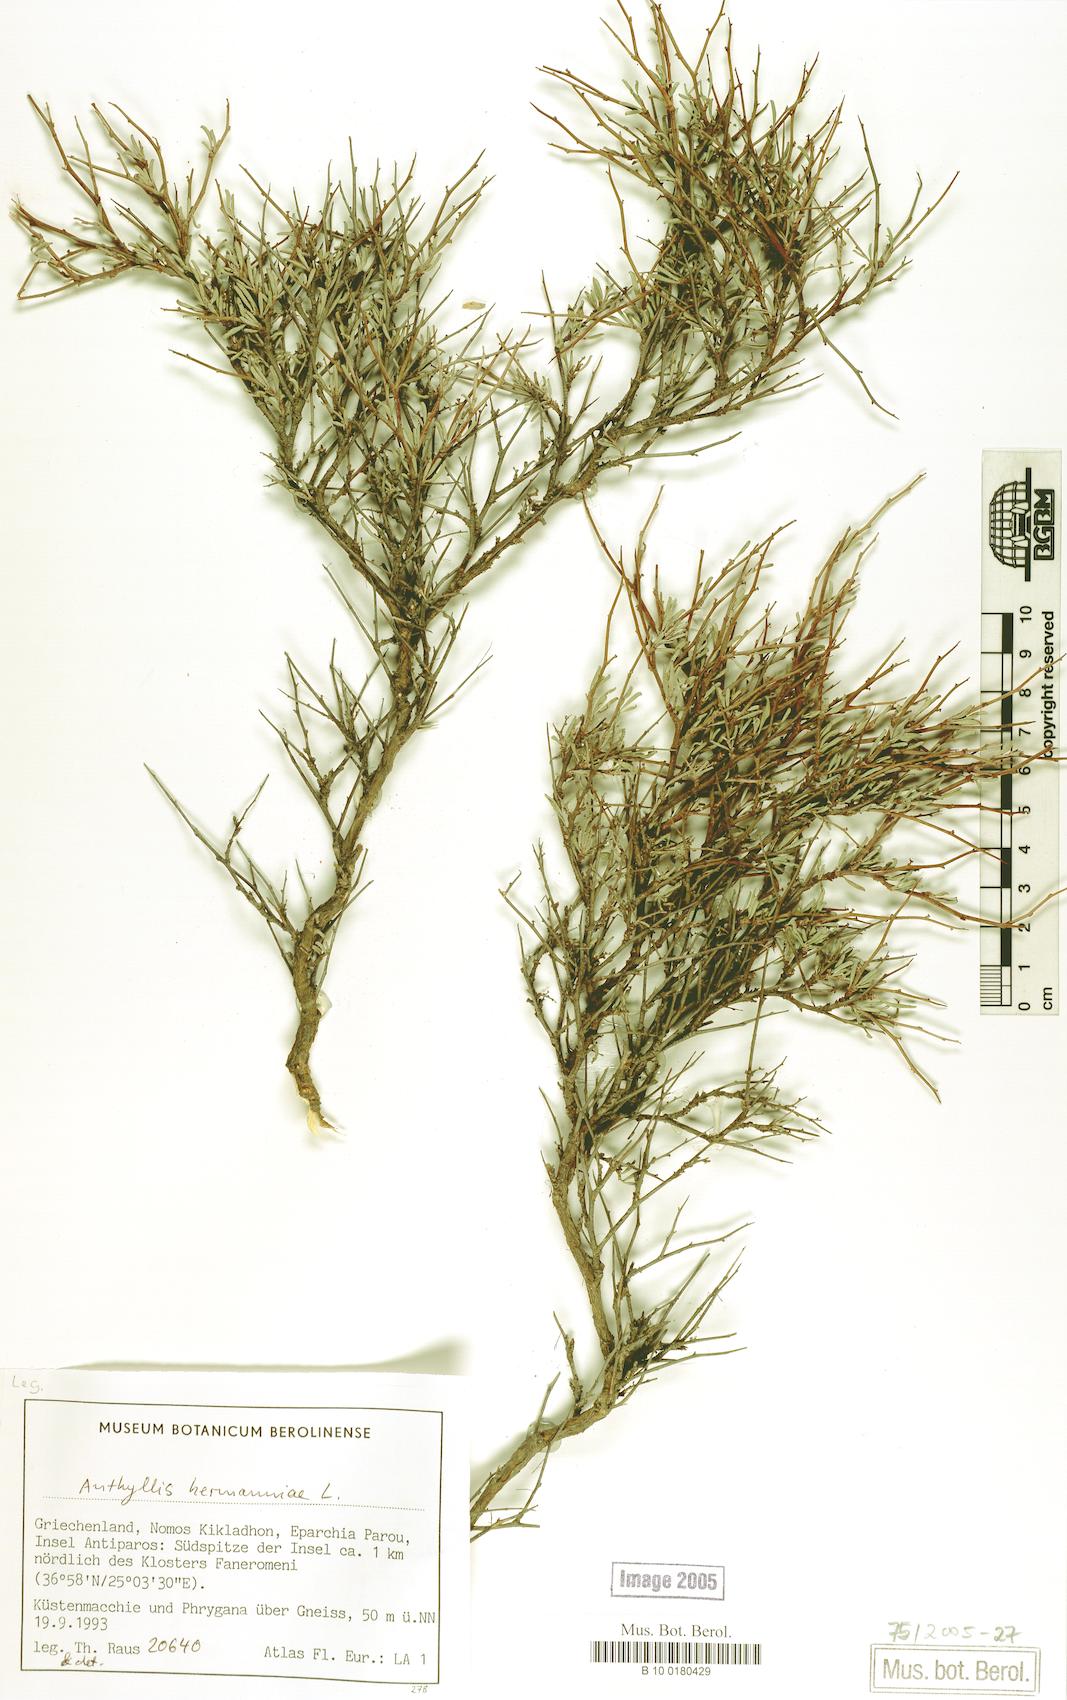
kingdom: Plantae
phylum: Tracheophyta
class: Magnoliopsida
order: Fabales
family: Fabaceae
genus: Anthyllis
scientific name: Anthyllis hermanniae
